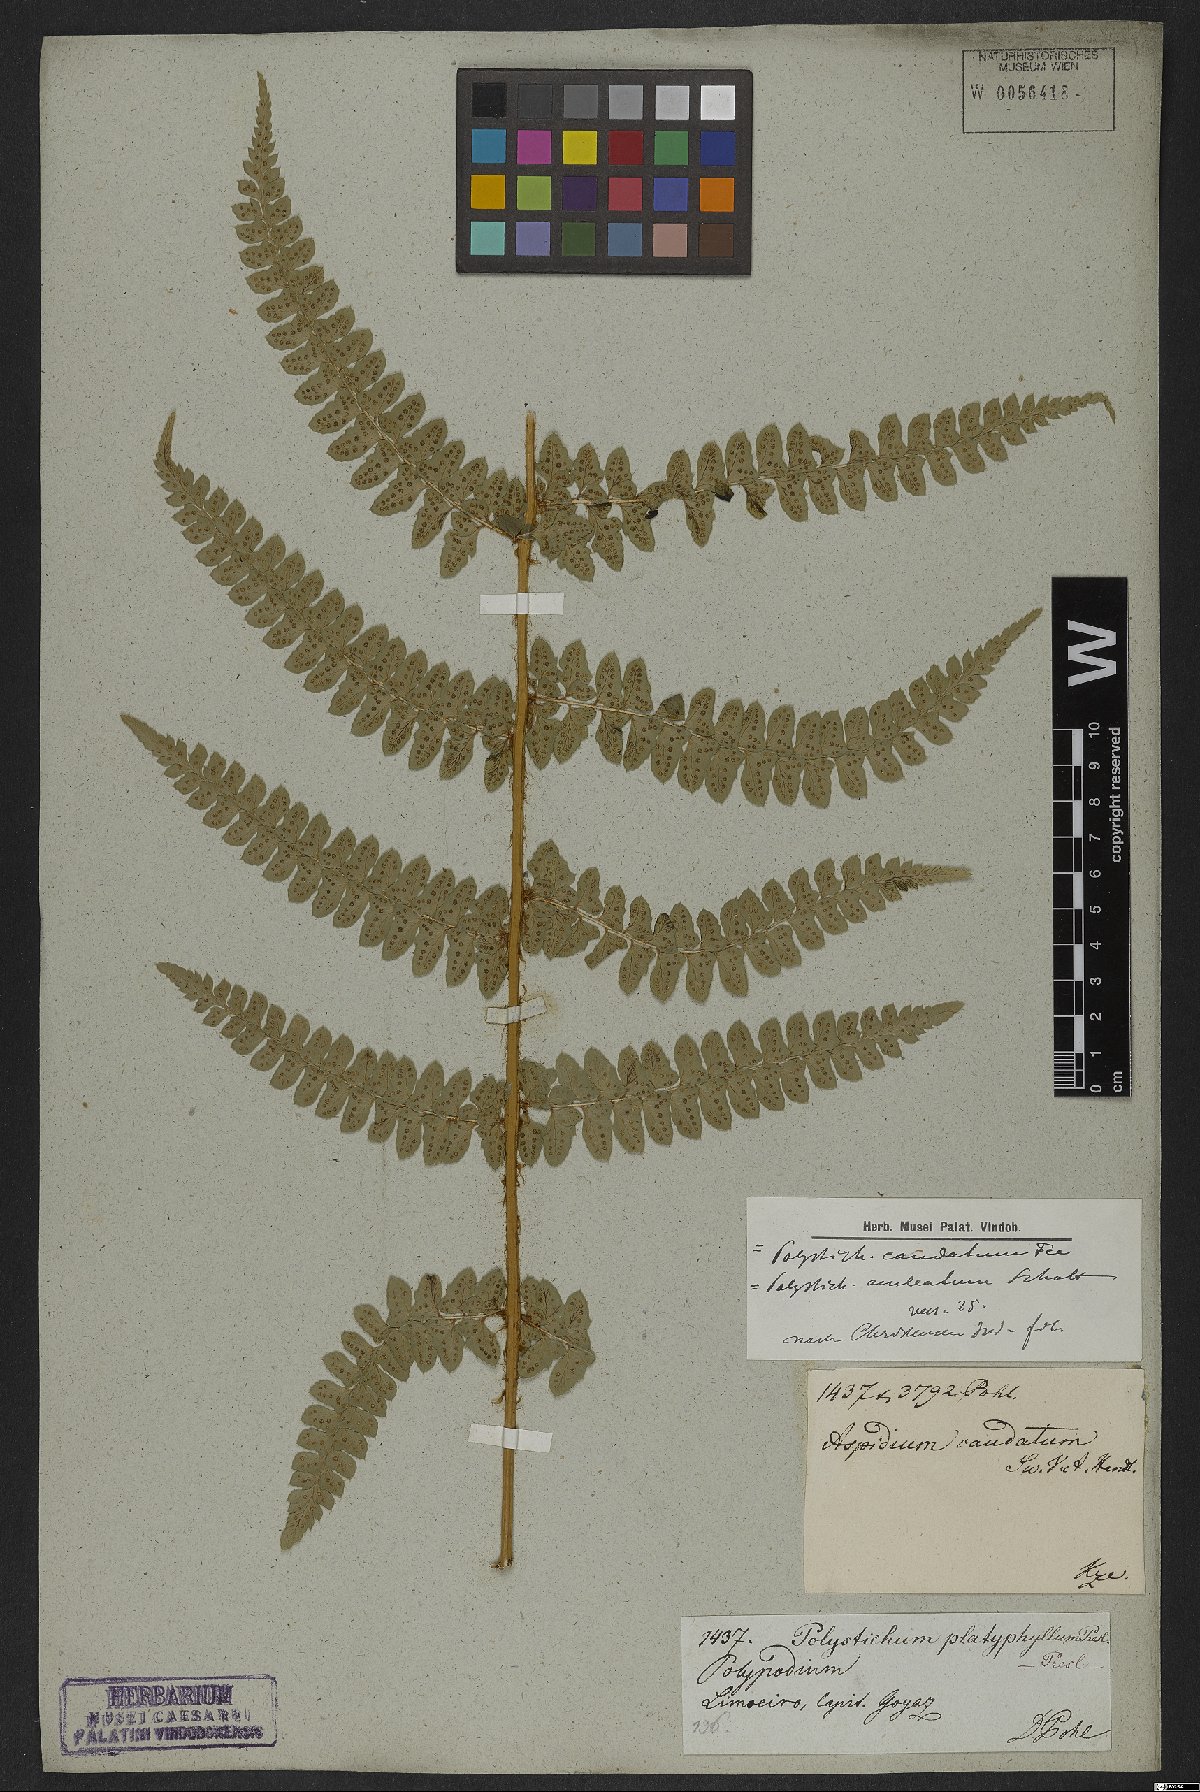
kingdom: Plantae
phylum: Tracheophyta
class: Polypodiopsida
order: Polypodiales
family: Dryopteridaceae
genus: Polystichum
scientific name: Polystichum aculeatum
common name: Hard shield-fern
